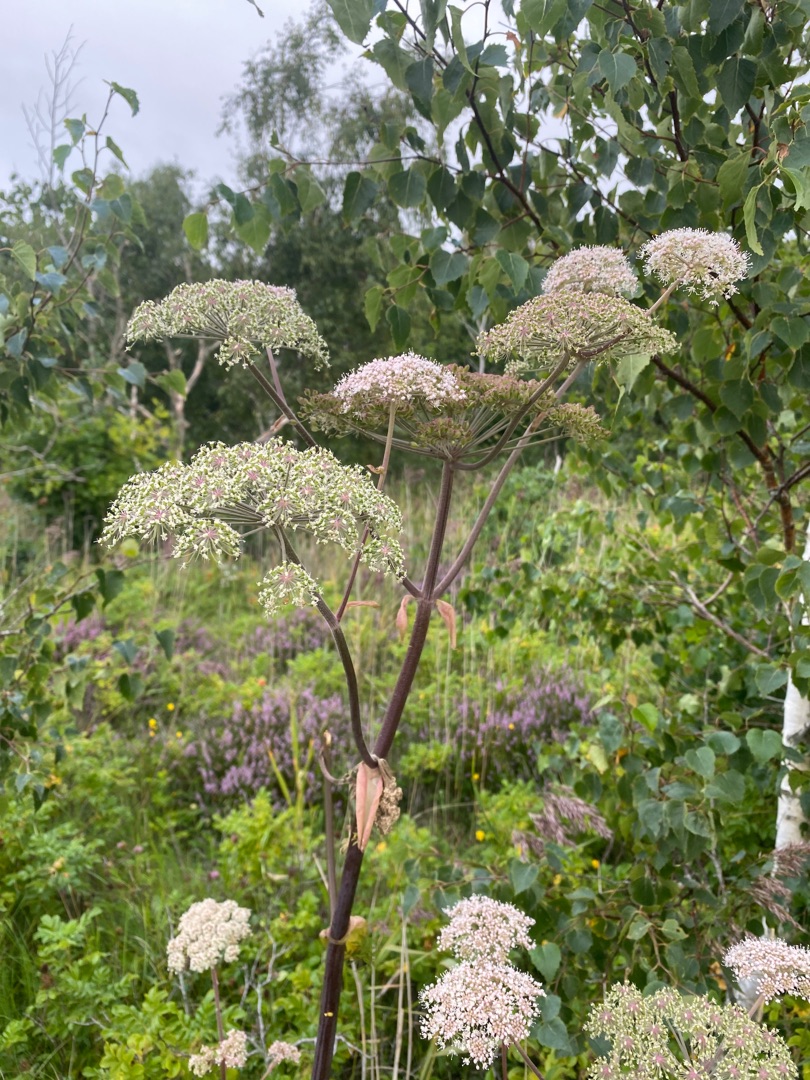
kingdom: Plantae
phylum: Tracheophyta
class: Magnoliopsida
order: Apiales
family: Apiaceae
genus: Angelica
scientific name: Angelica sylvestris
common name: Angelik
